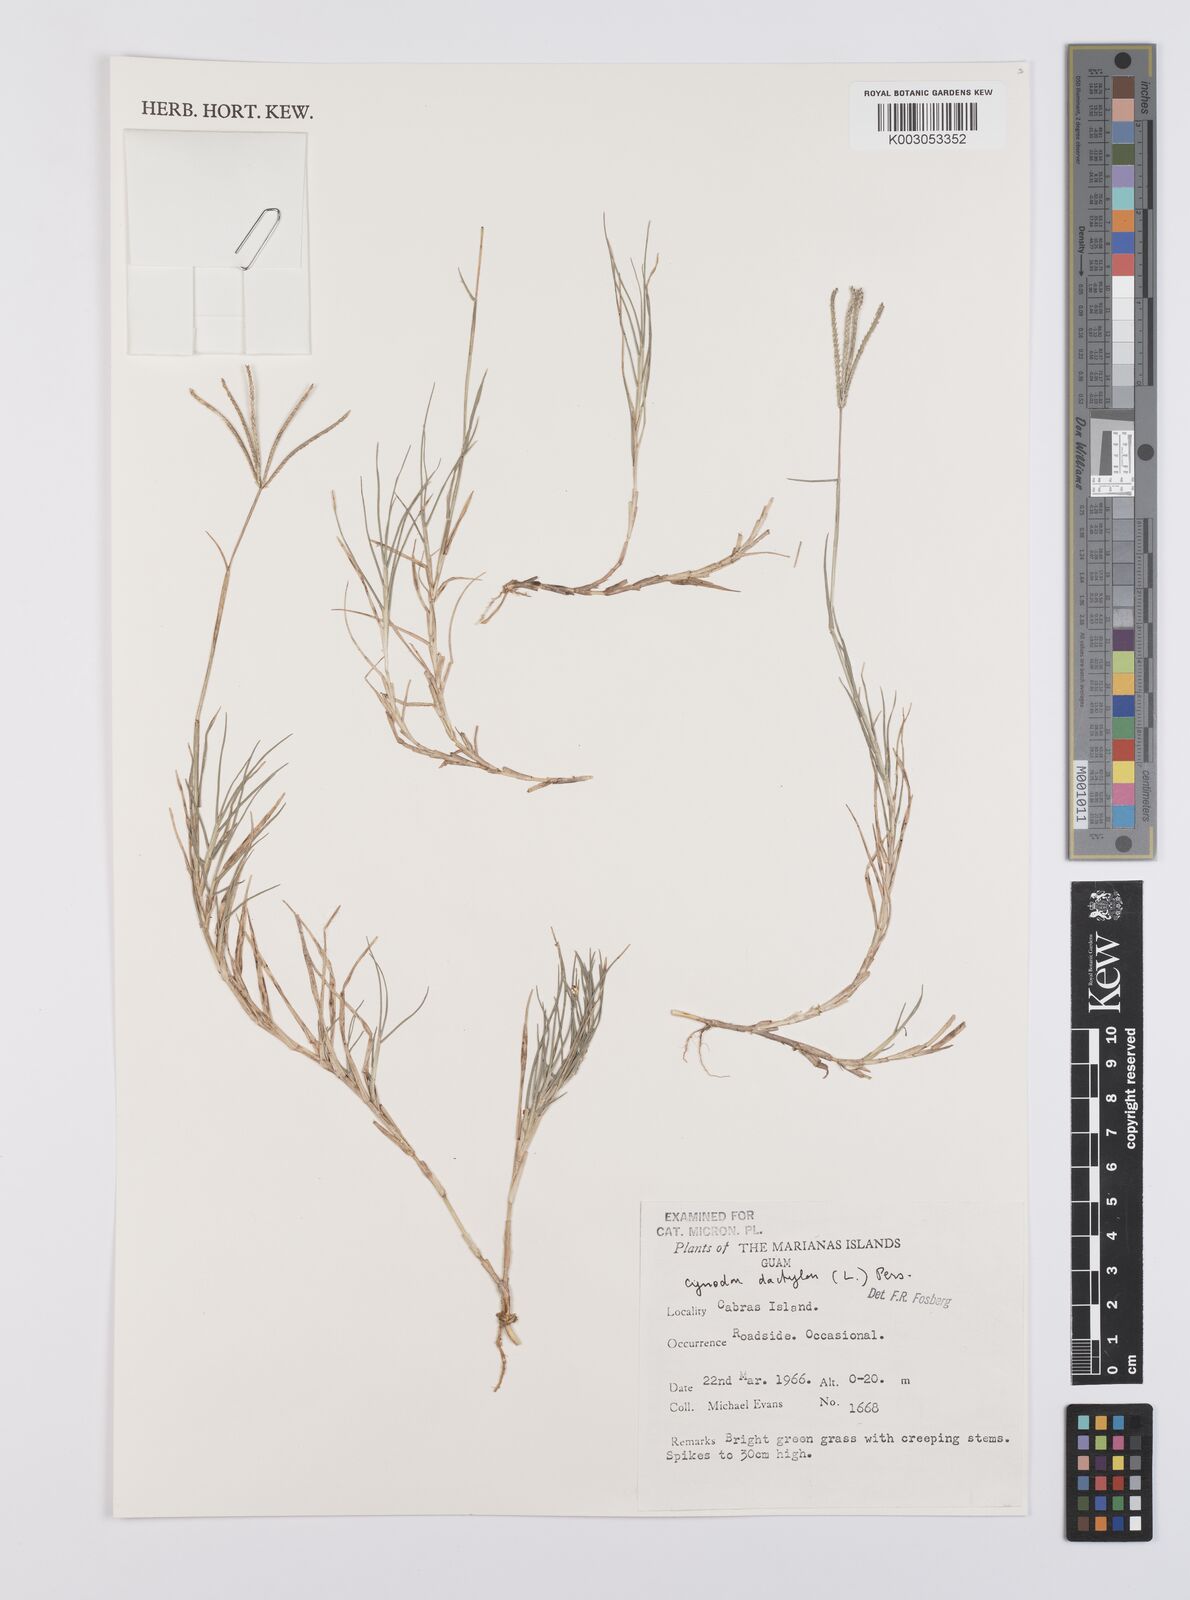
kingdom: Plantae
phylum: Tracheophyta
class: Liliopsida
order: Poales
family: Poaceae
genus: Cynodon
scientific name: Cynodon dactylon
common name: Bermuda grass
